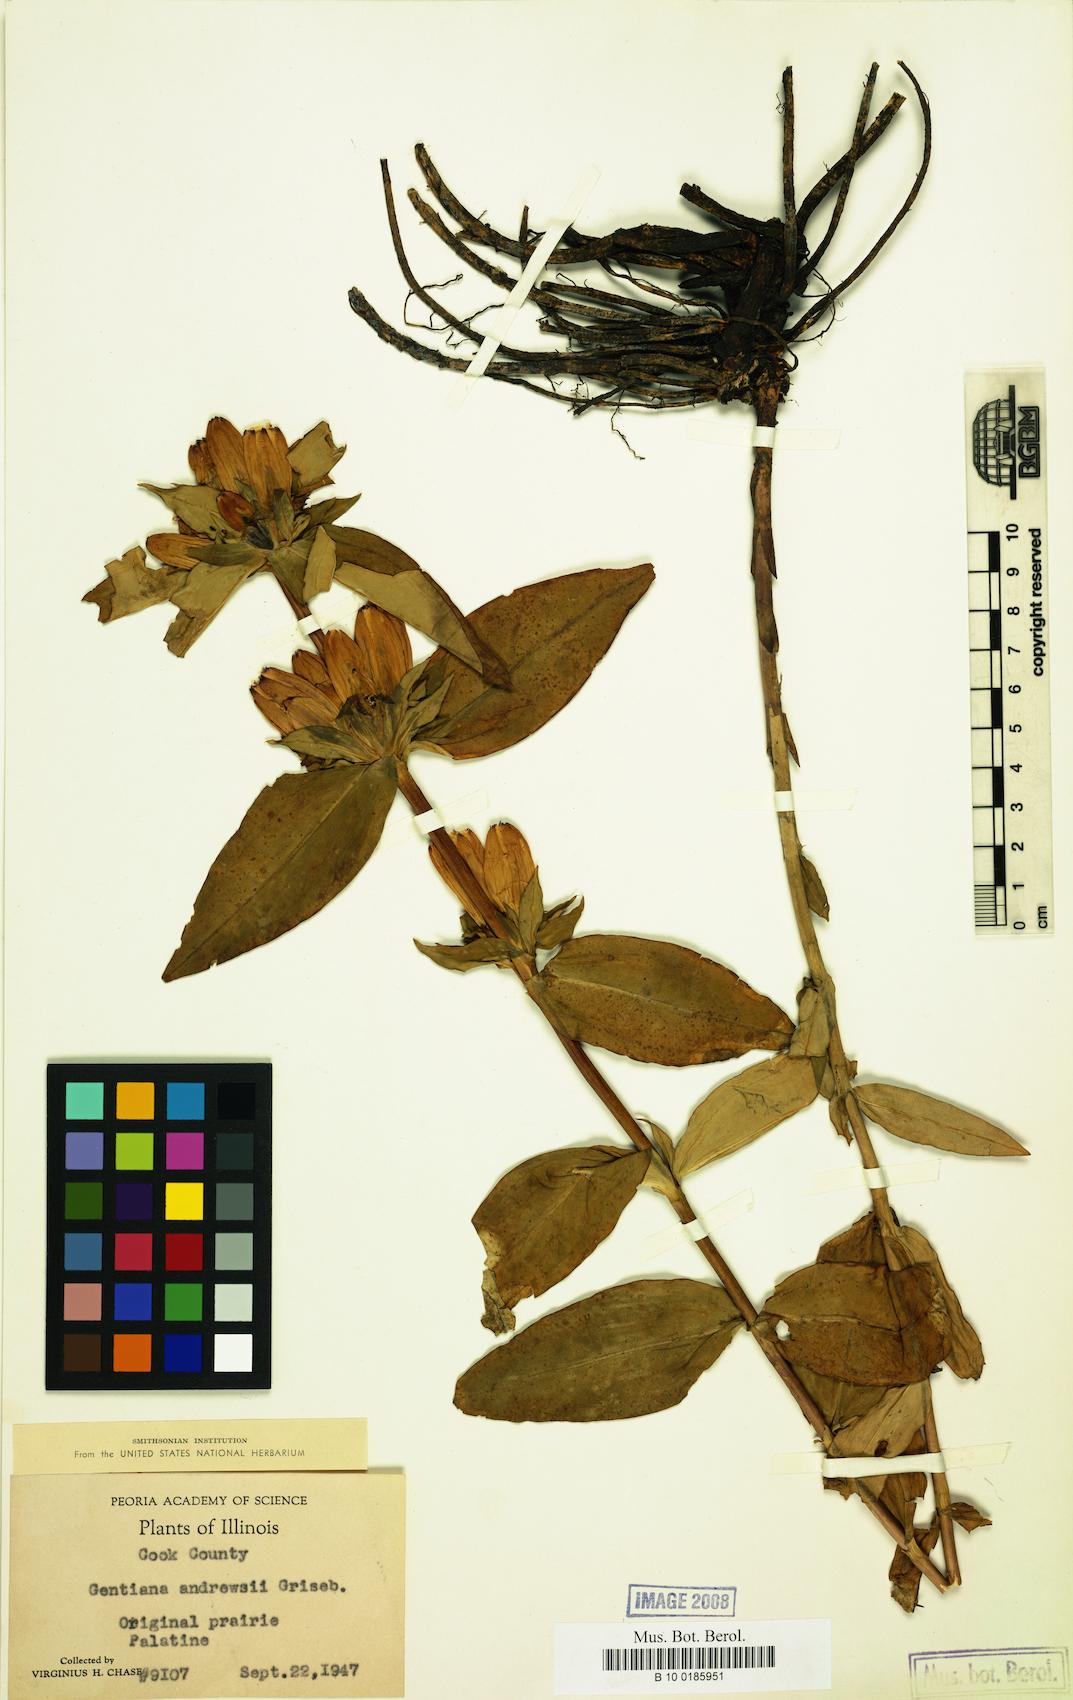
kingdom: Plantae
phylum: Tracheophyta
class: Magnoliopsida
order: Gentianales
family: Gentianaceae
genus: Gentiana
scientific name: Gentiana andrewsii
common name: Bottle gentian
